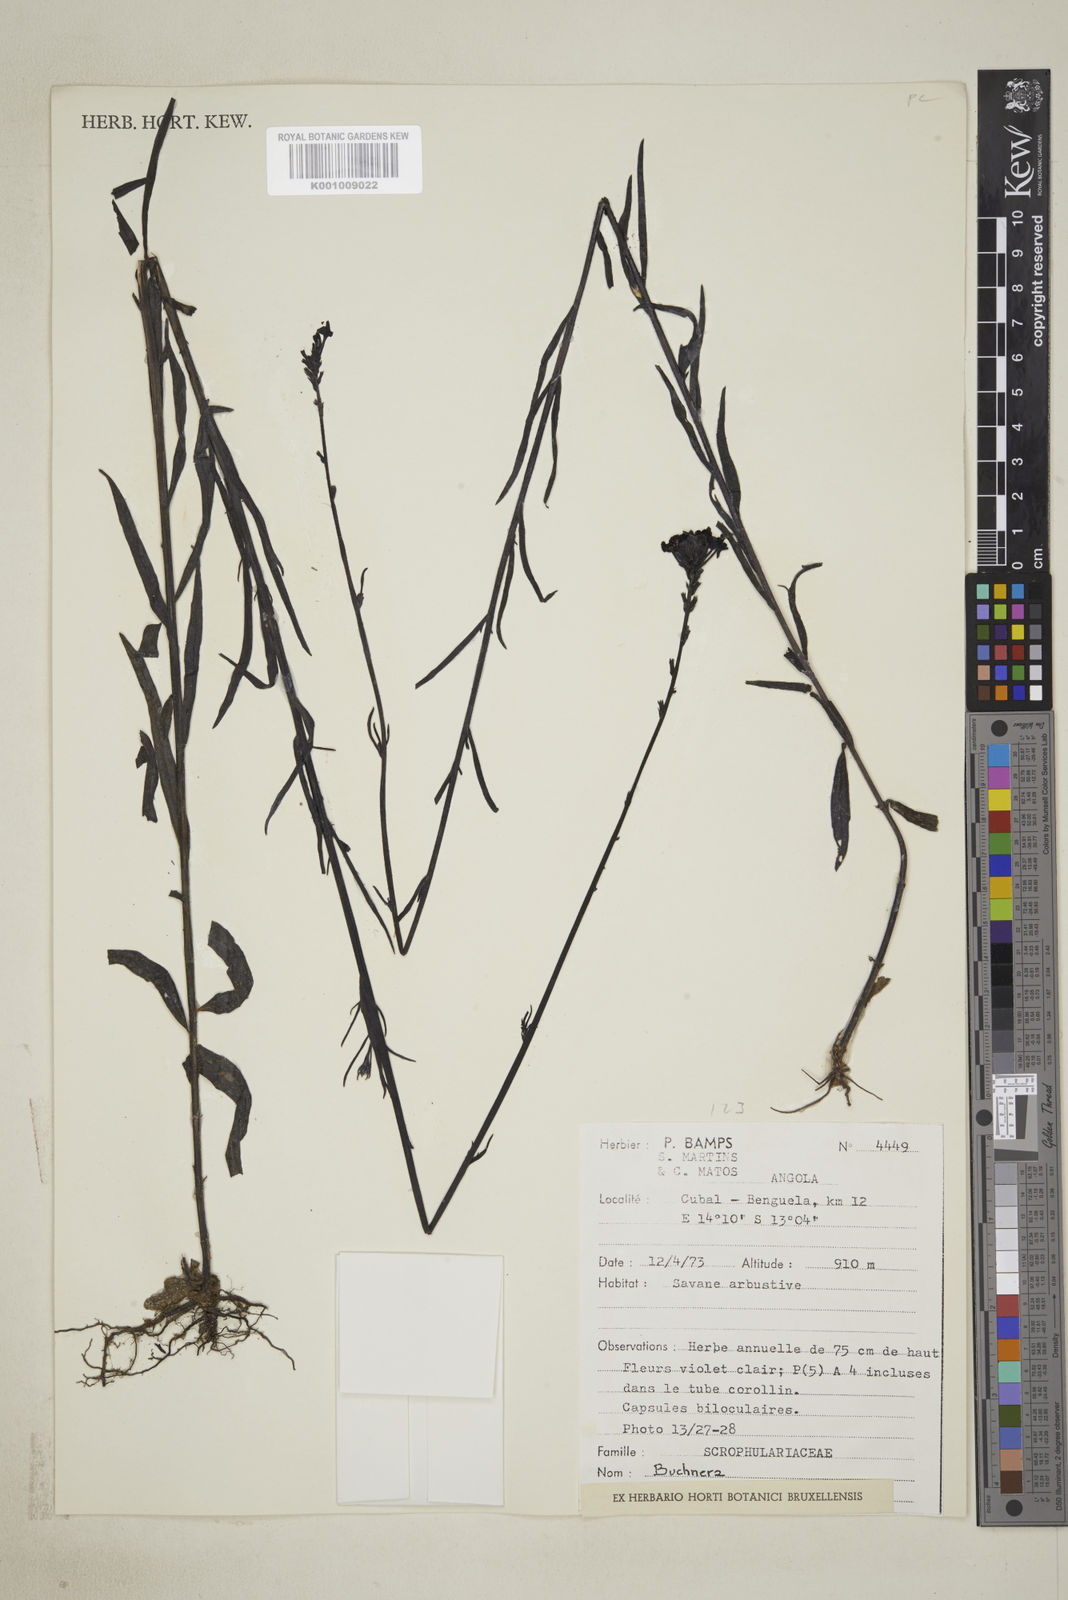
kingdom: Plantae
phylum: Tracheophyta
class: Magnoliopsida
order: Lamiales
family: Orobanchaceae
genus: Buchnera
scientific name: Buchnera randii
